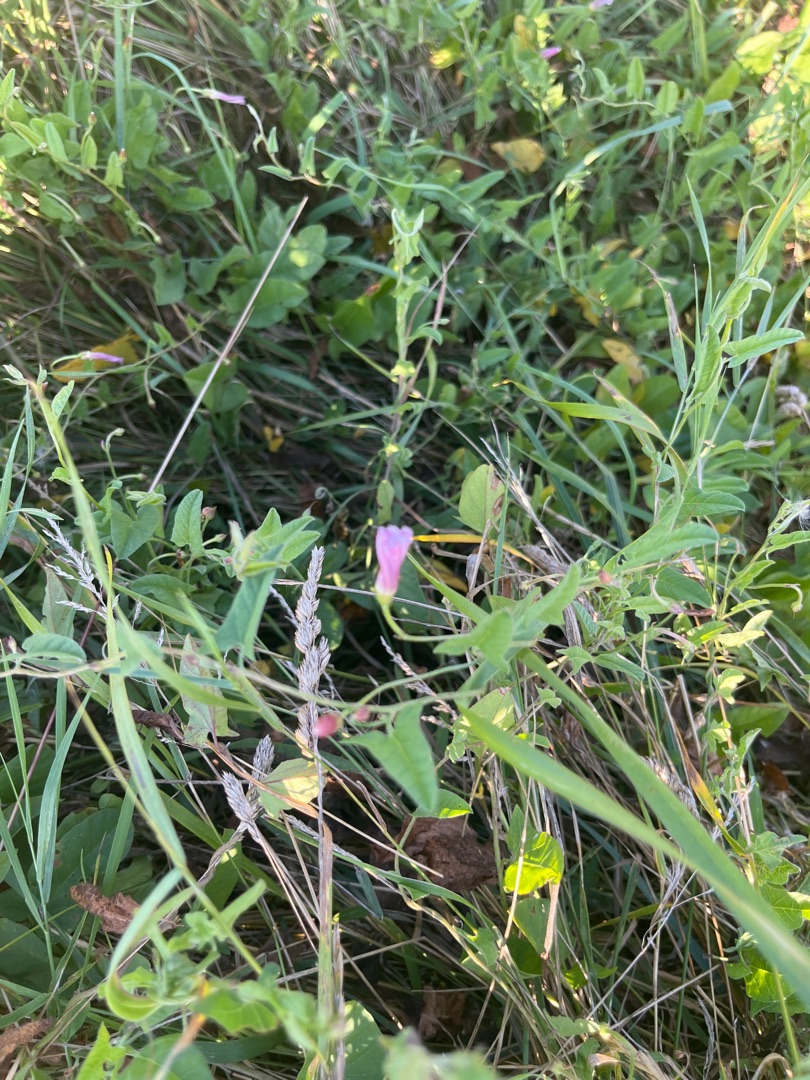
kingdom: Plantae
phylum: Tracheophyta
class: Magnoliopsida
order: Solanales
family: Convolvulaceae
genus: Convolvulus
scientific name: Convolvulus arvensis
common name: Ager-snerle
